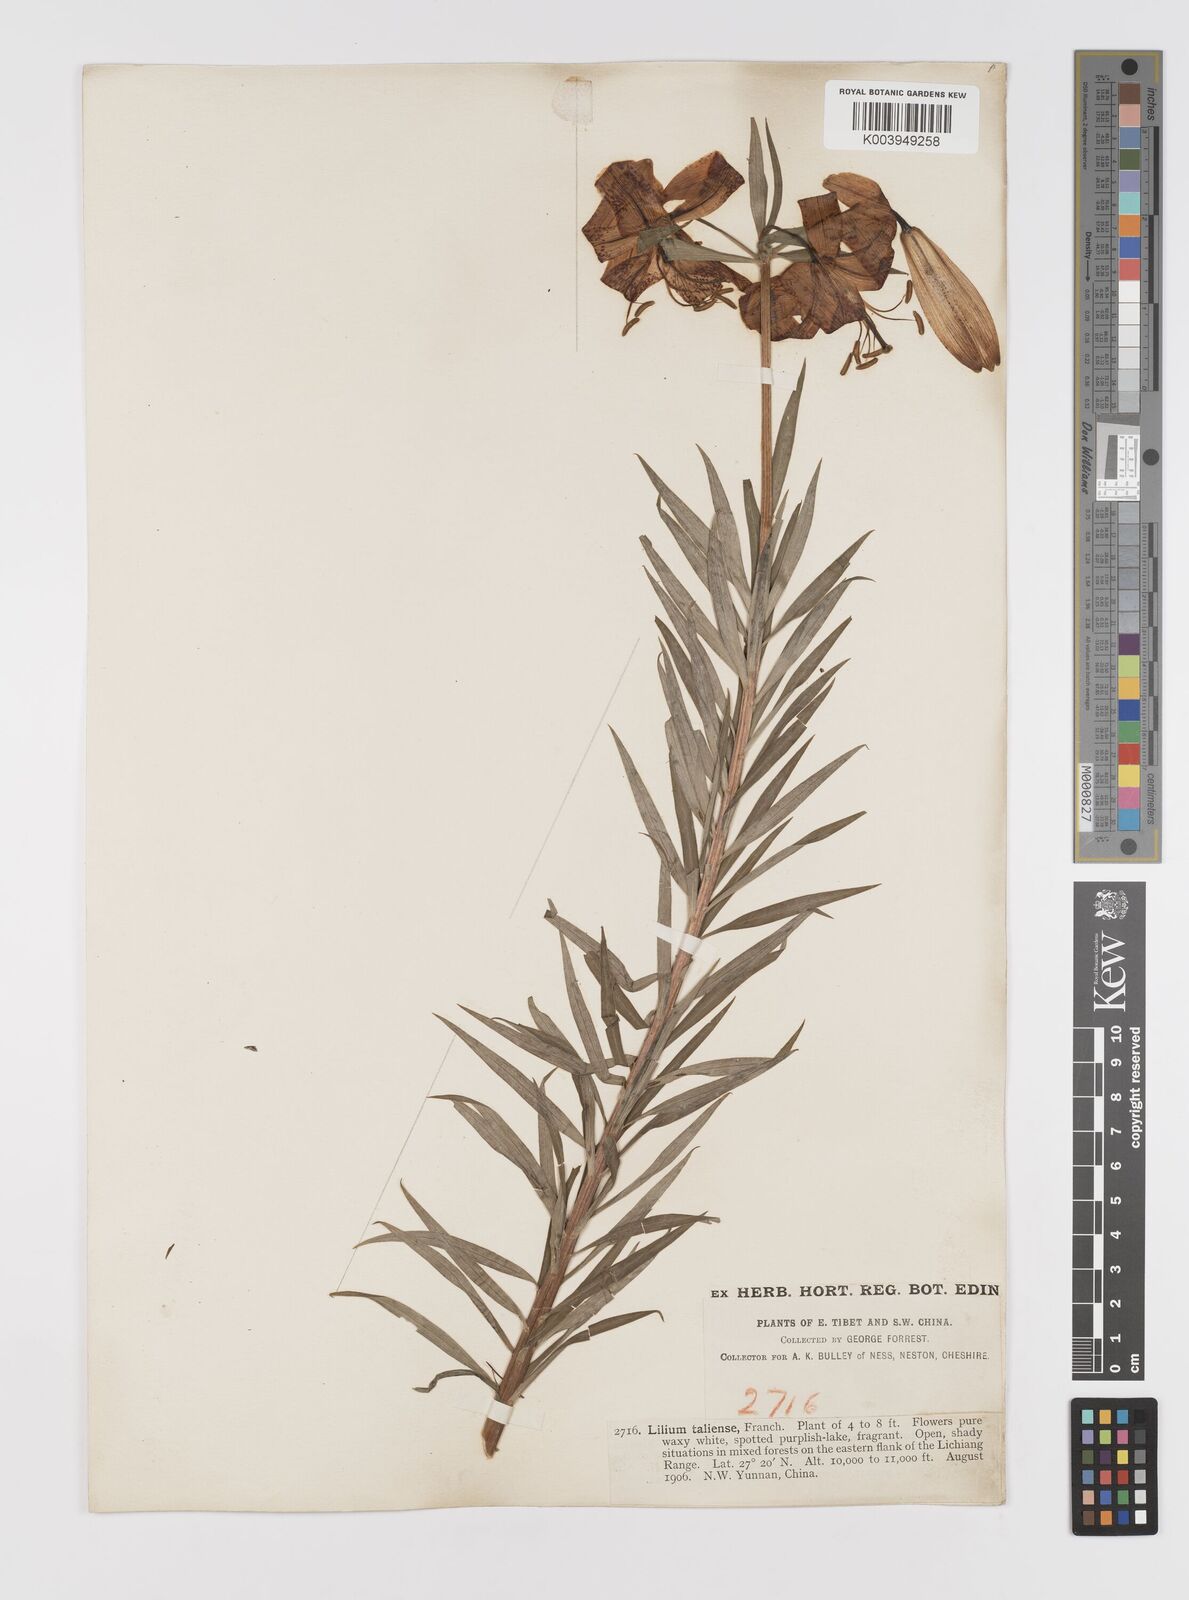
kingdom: Plantae
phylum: Tracheophyta
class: Liliopsida
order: Liliales
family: Liliaceae
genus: Lilium
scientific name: Lilium taliense
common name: Tali lily
